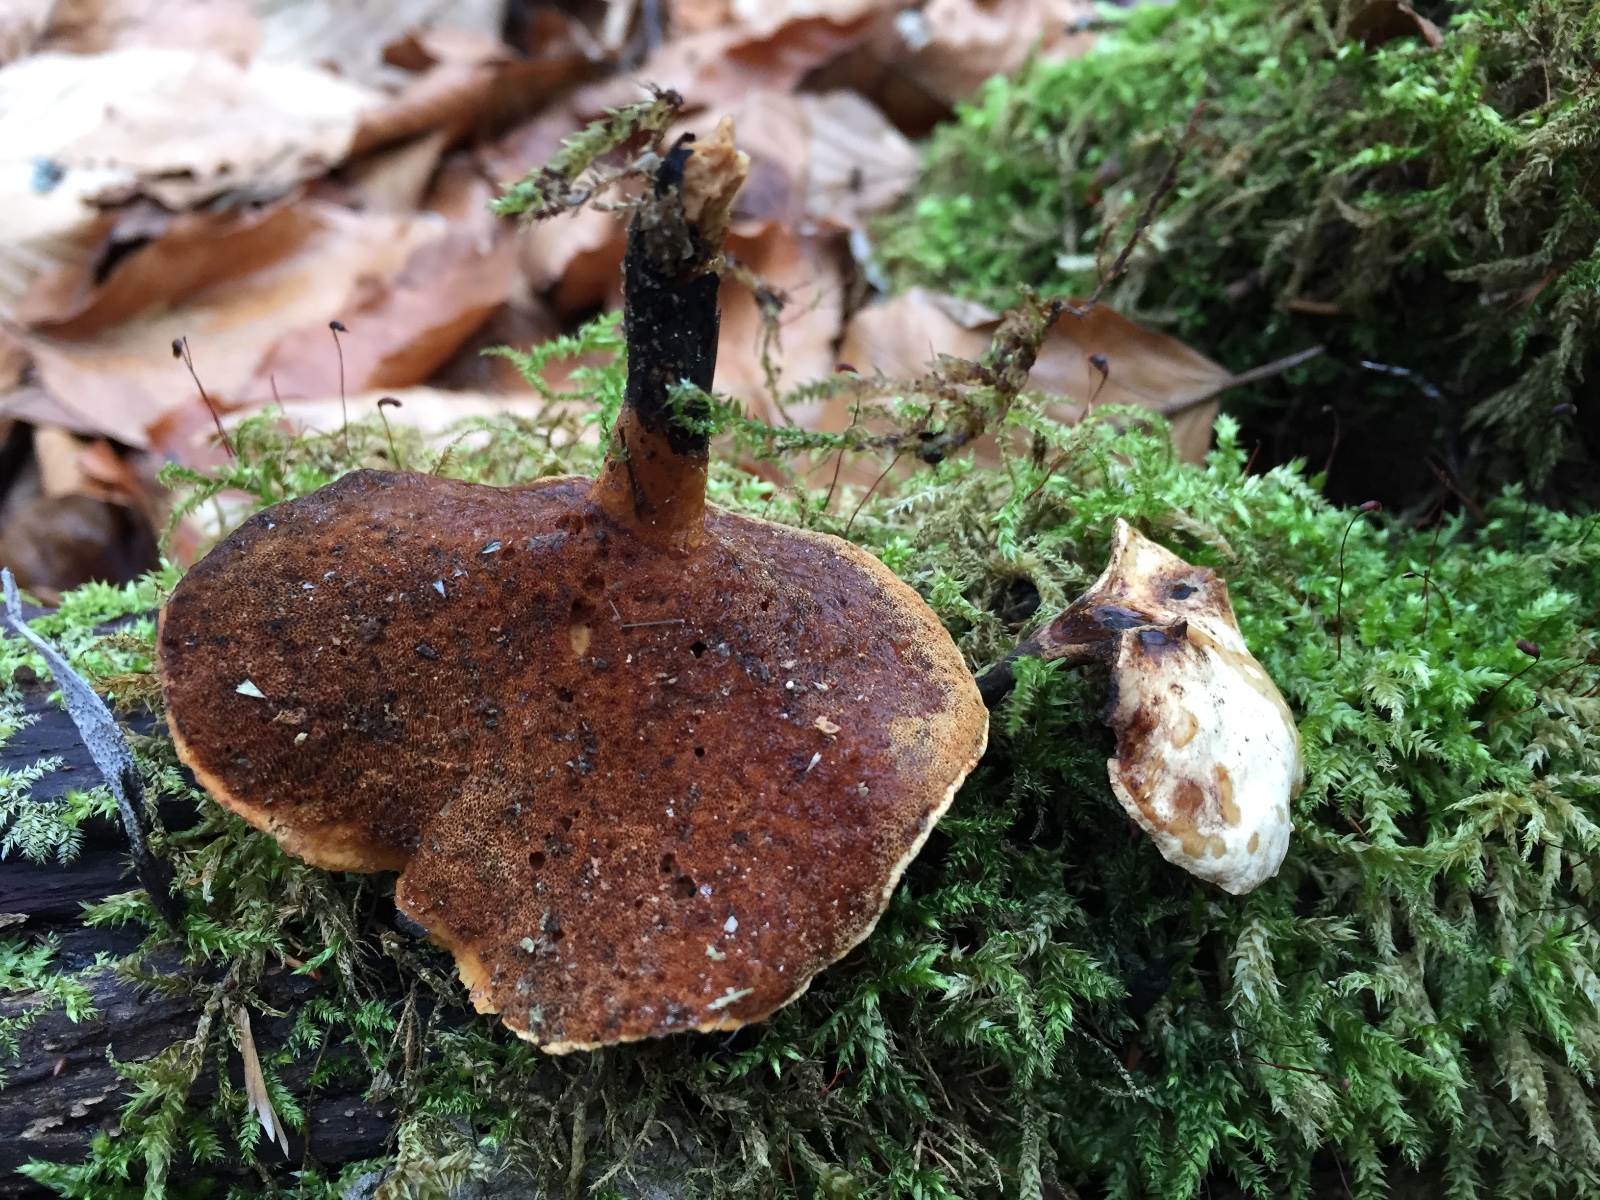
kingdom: Fungi
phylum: Basidiomycota
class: Agaricomycetes
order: Polyporales
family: Polyporaceae
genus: Cerioporus
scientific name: Cerioporus varius
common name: foranderlig stilkporesvamp
